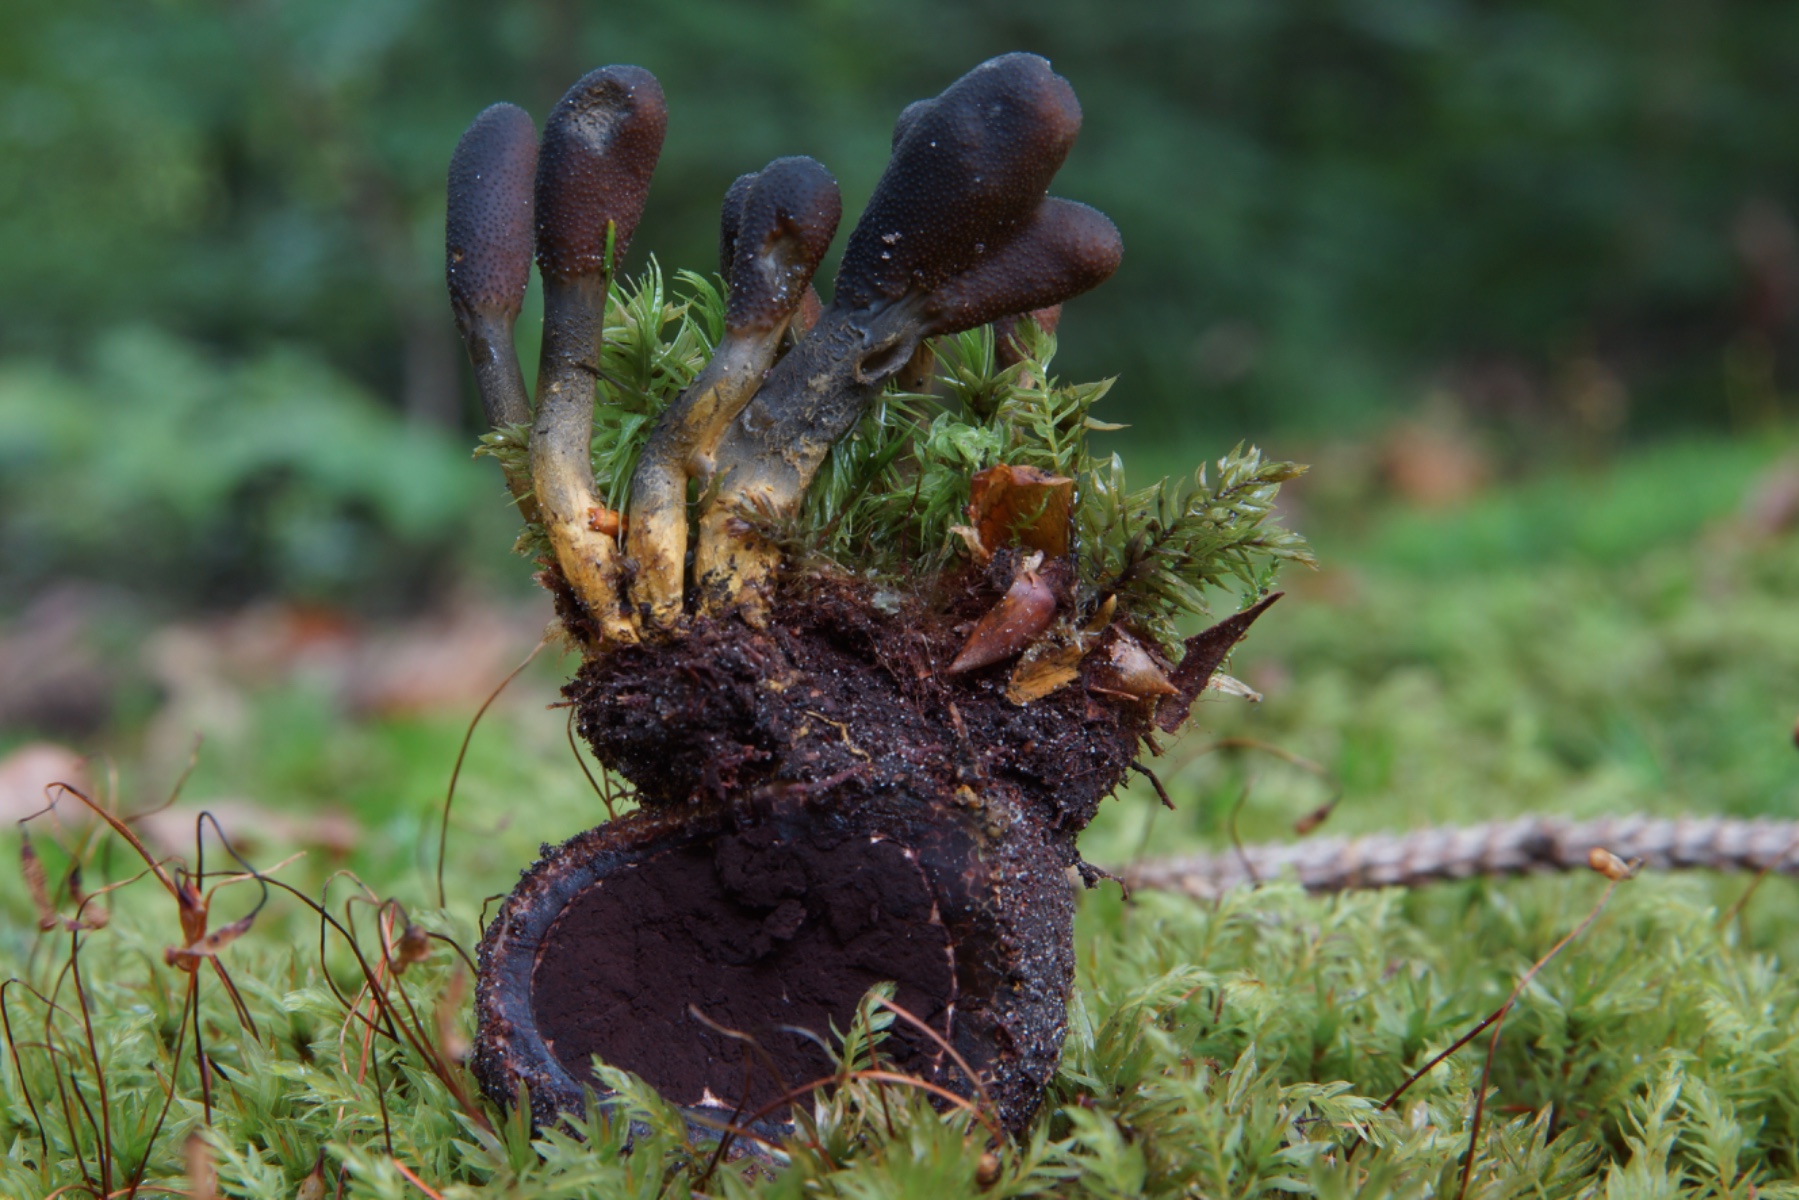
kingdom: Fungi
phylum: Ascomycota
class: Sordariomycetes
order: Hypocreales
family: Ophiocordycipitaceae
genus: Tolypocladium
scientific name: Tolypocladium ophioglossoides
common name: slank snyltekølle
